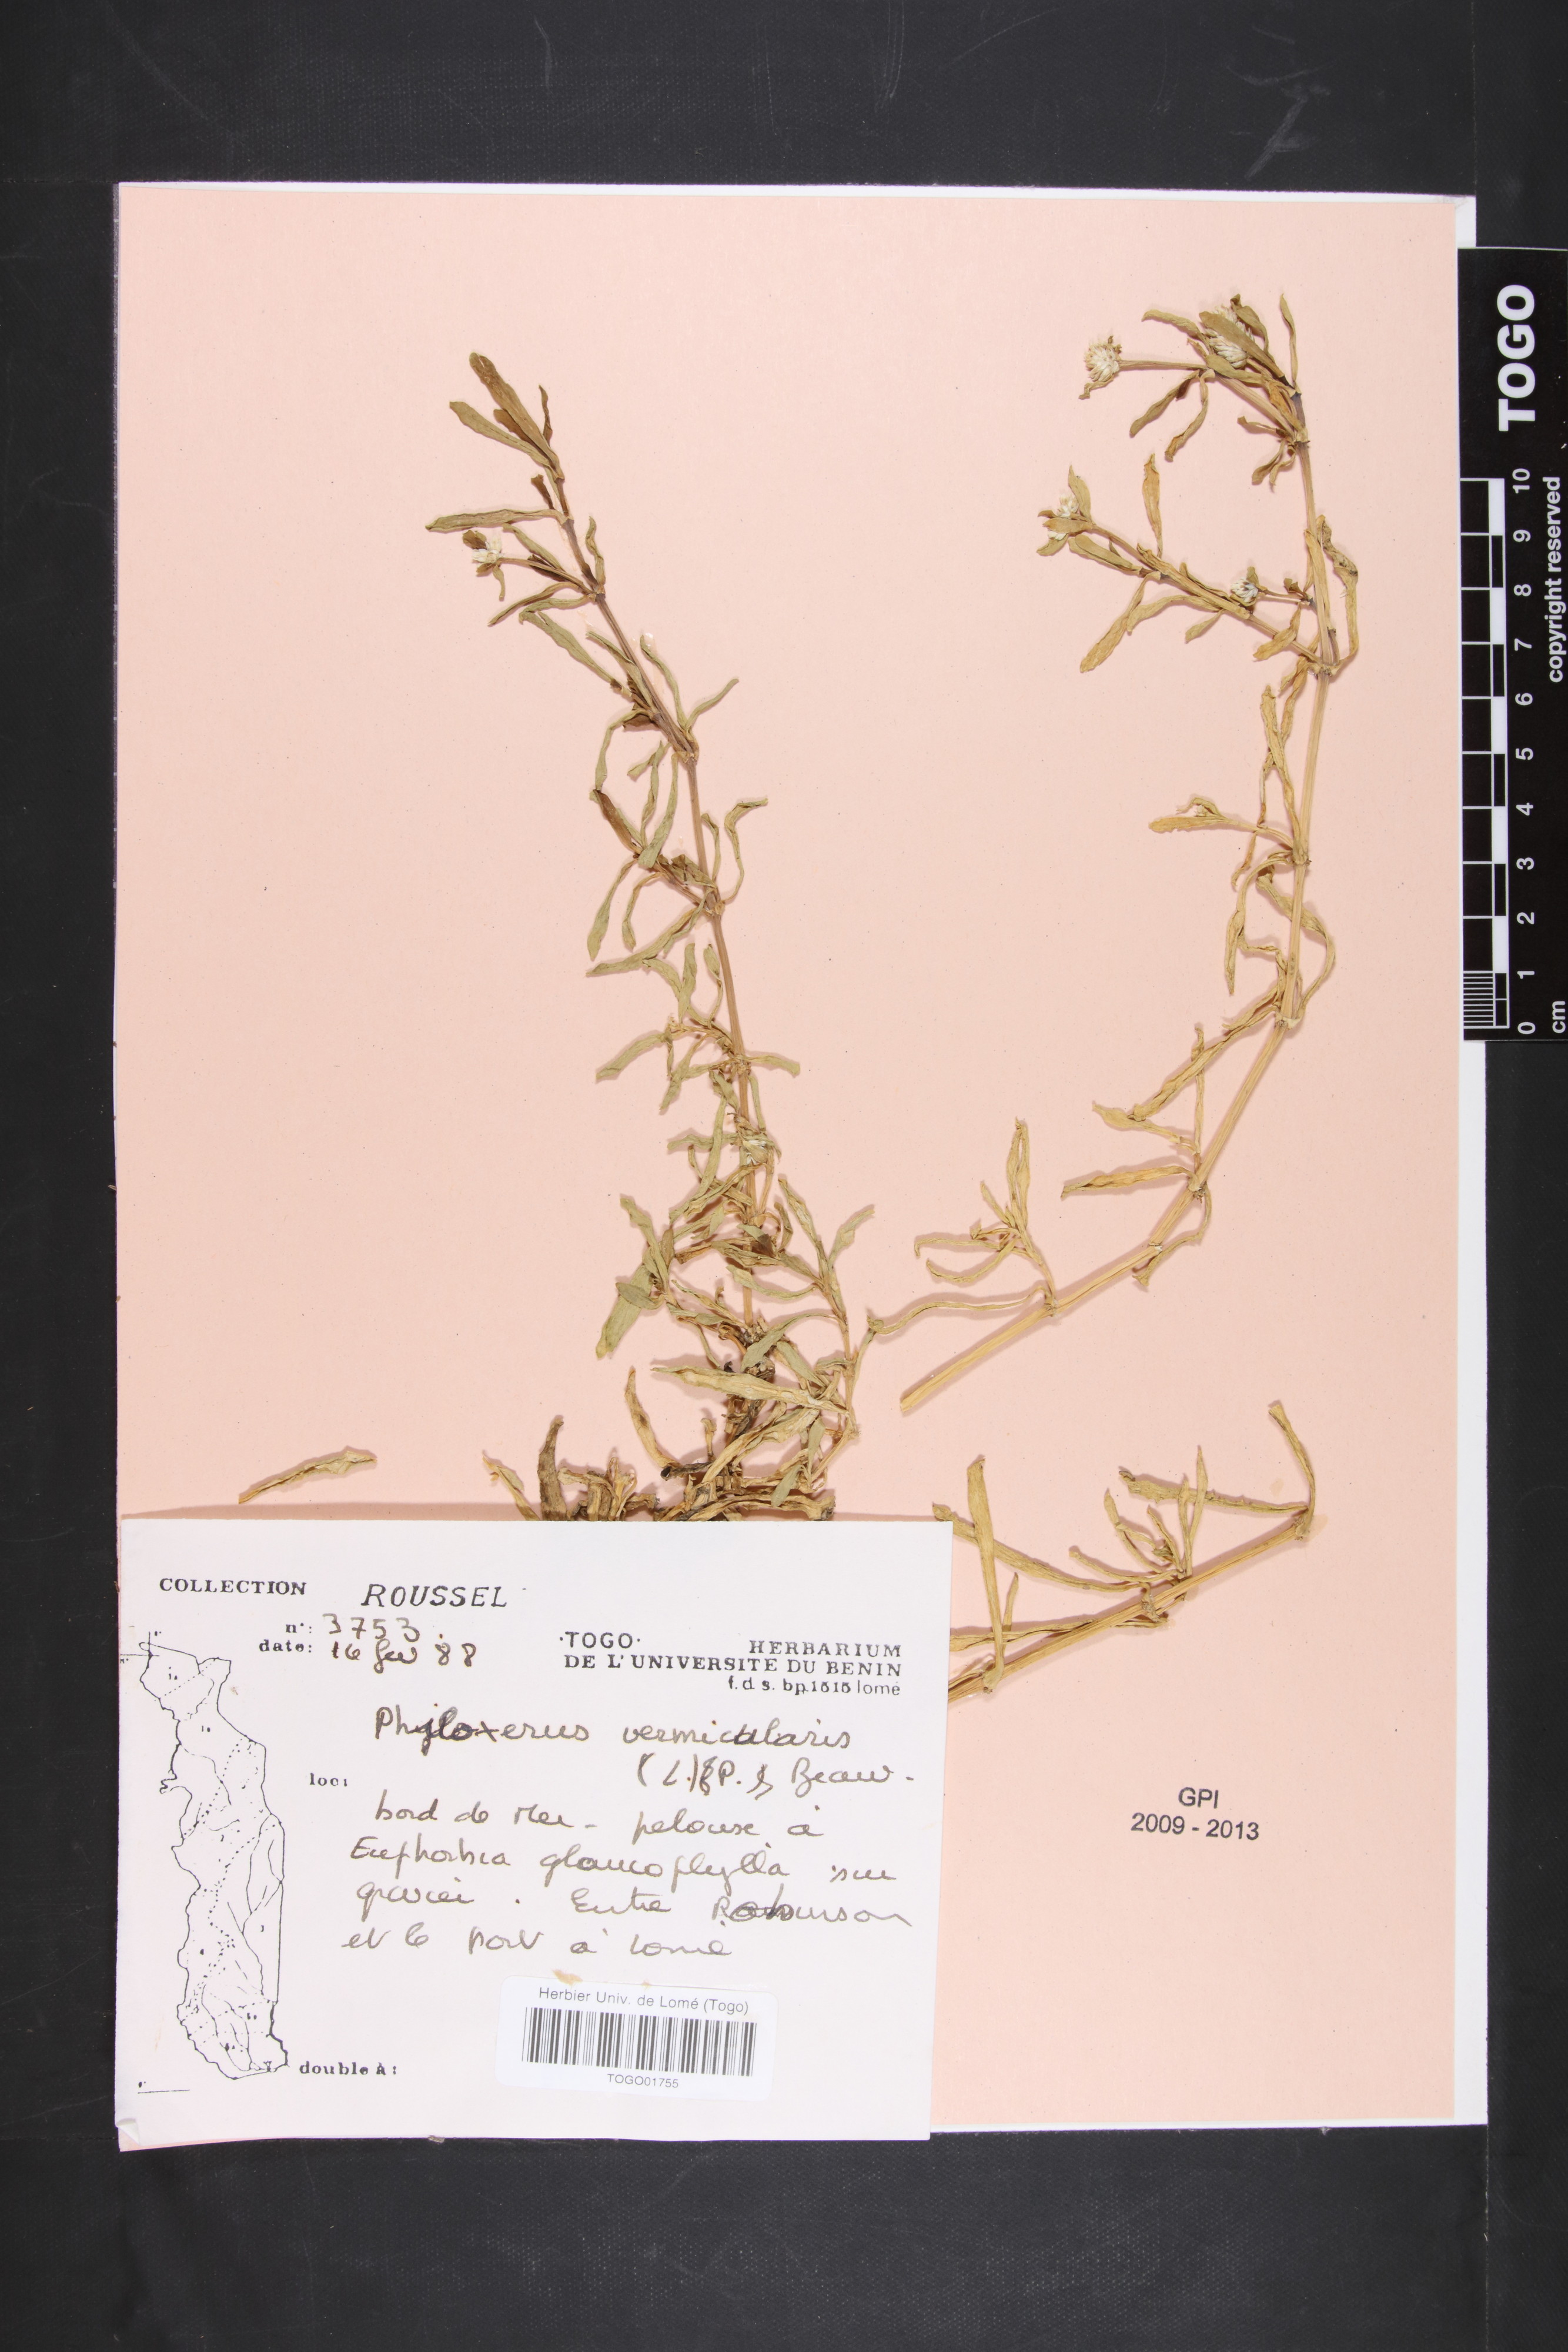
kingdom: Plantae
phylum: Tracheophyta
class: Magnoliopsida
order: Caryophyllales
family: Amaranthaceae
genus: Gomphrena
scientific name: Gomphrena vermicularis
